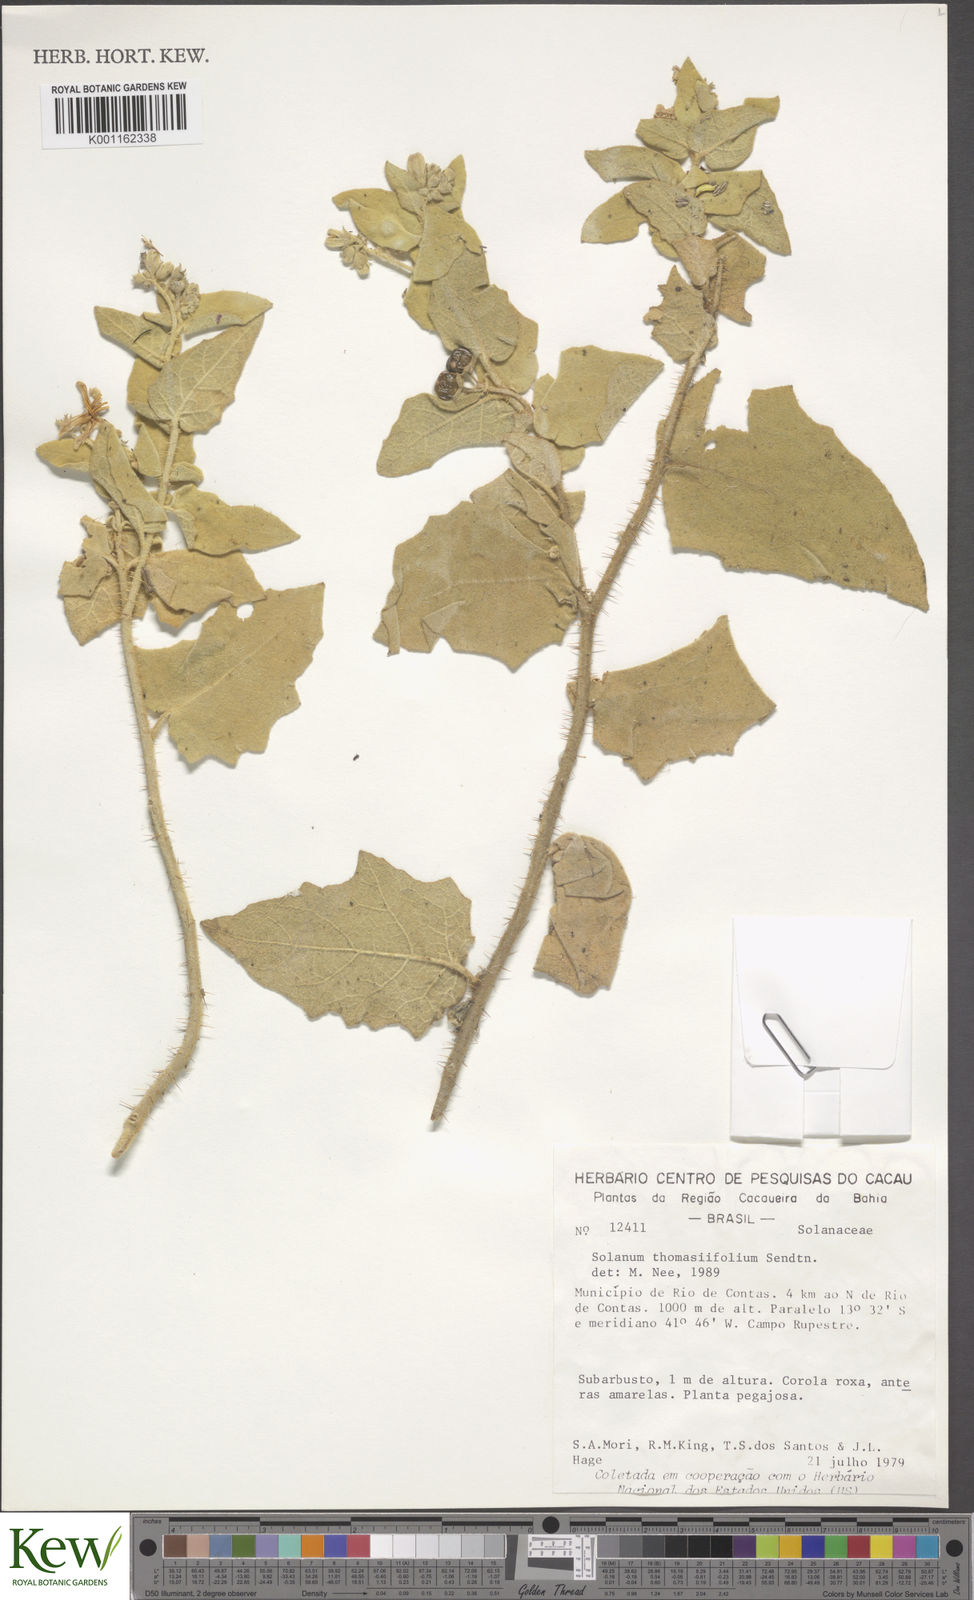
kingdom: Plantae
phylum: Tracheophyta
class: Magnoliopsida
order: Solanales
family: Solanaceae
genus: Solanum
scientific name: Solanum thomasiifolium
